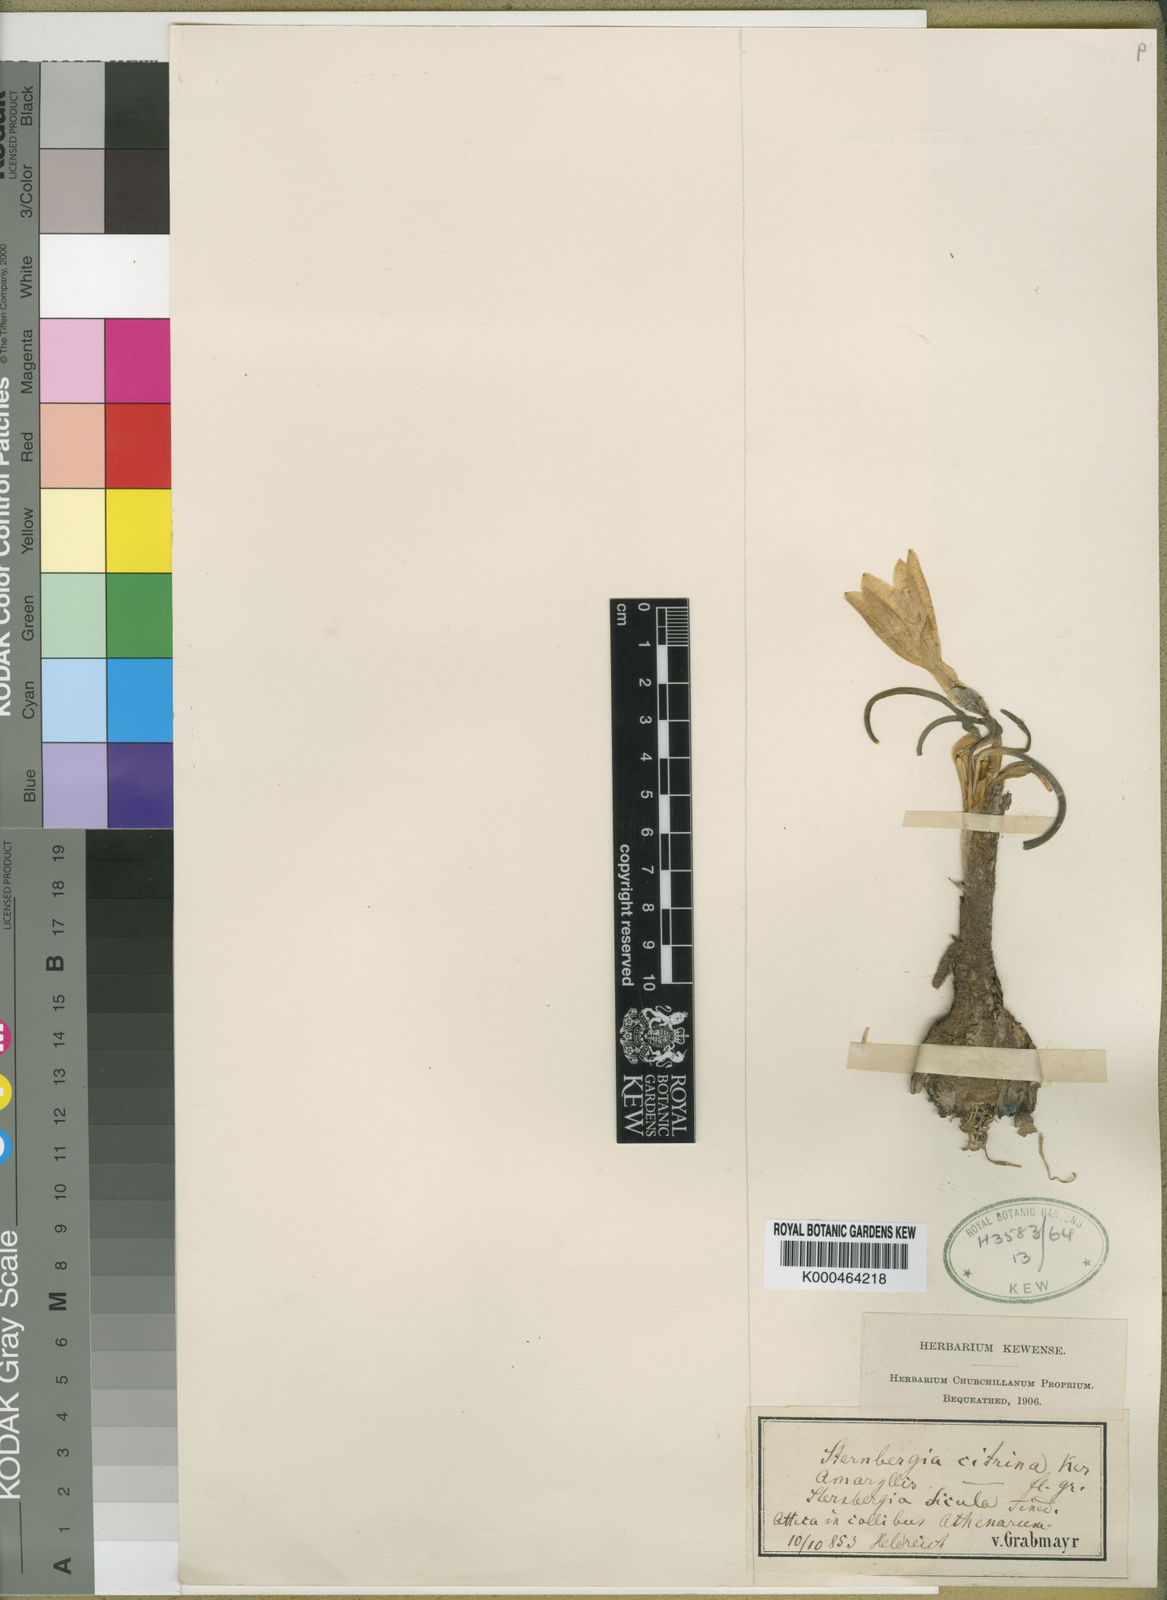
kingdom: Plantae
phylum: Tracheophyta
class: Liliopsida
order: Asparagales
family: Amaryllidaceae
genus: Sternbergia
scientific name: Sternbergia
